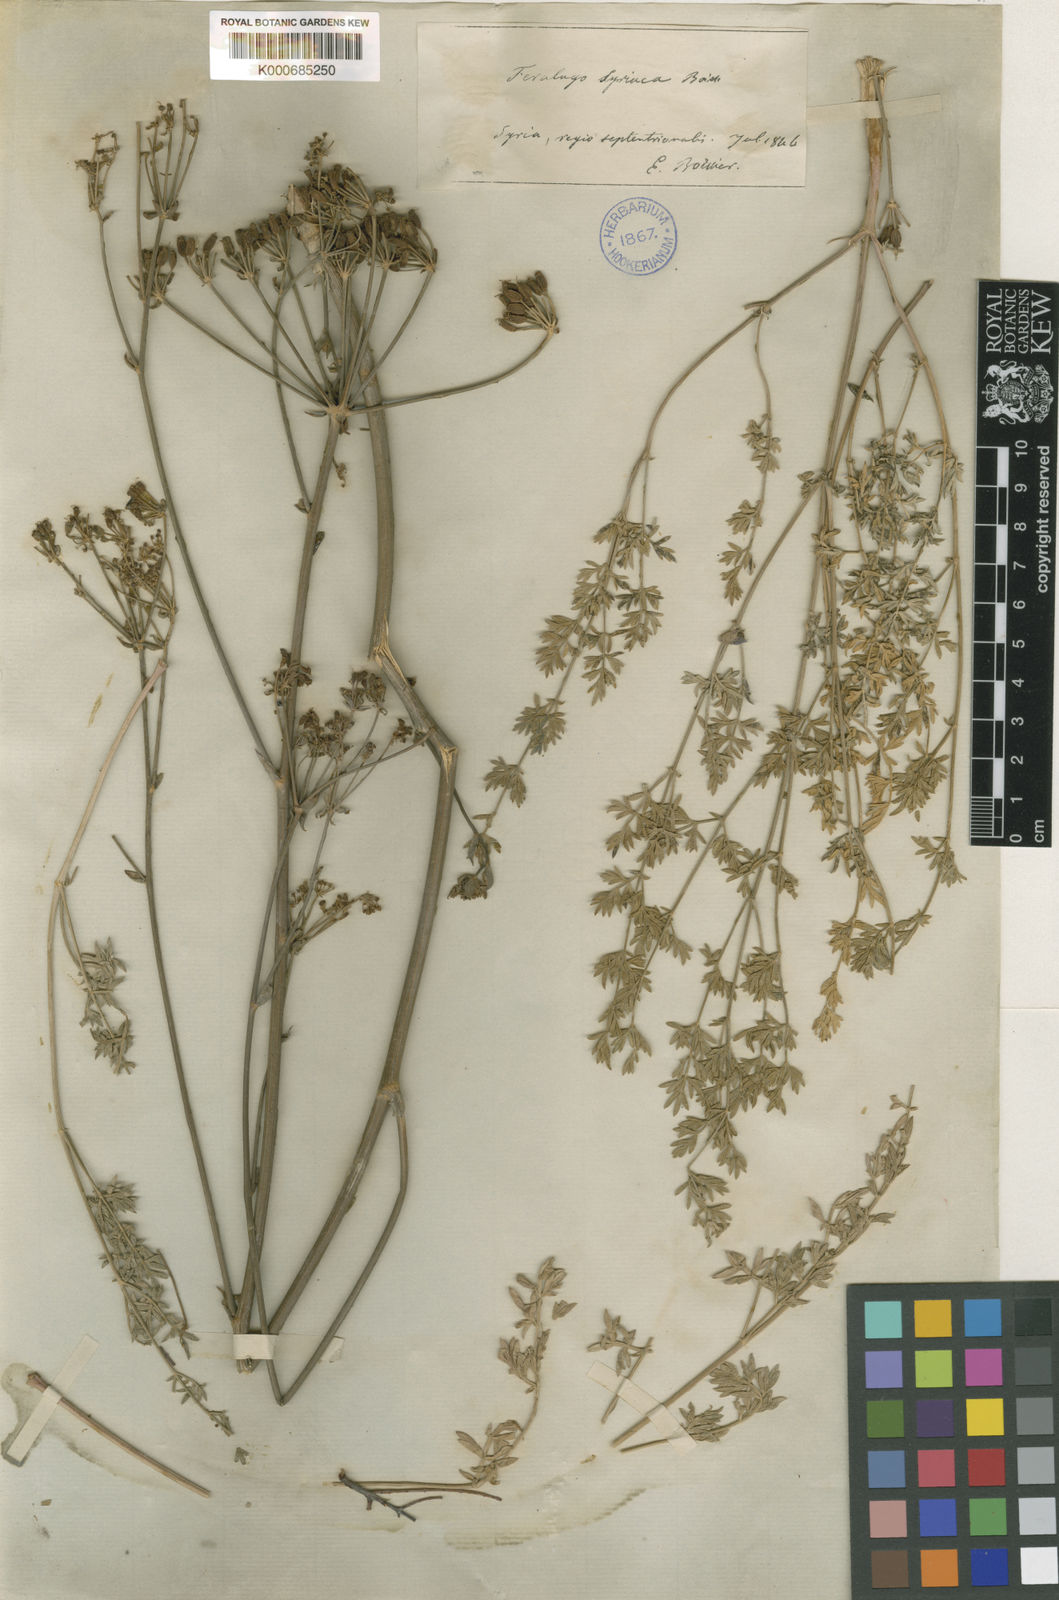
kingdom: Plantae
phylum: Tracheophyta
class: Magnoliopsida
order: Apiales
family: Apiaceae
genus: Ferulago
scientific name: Ferulago syriaca
